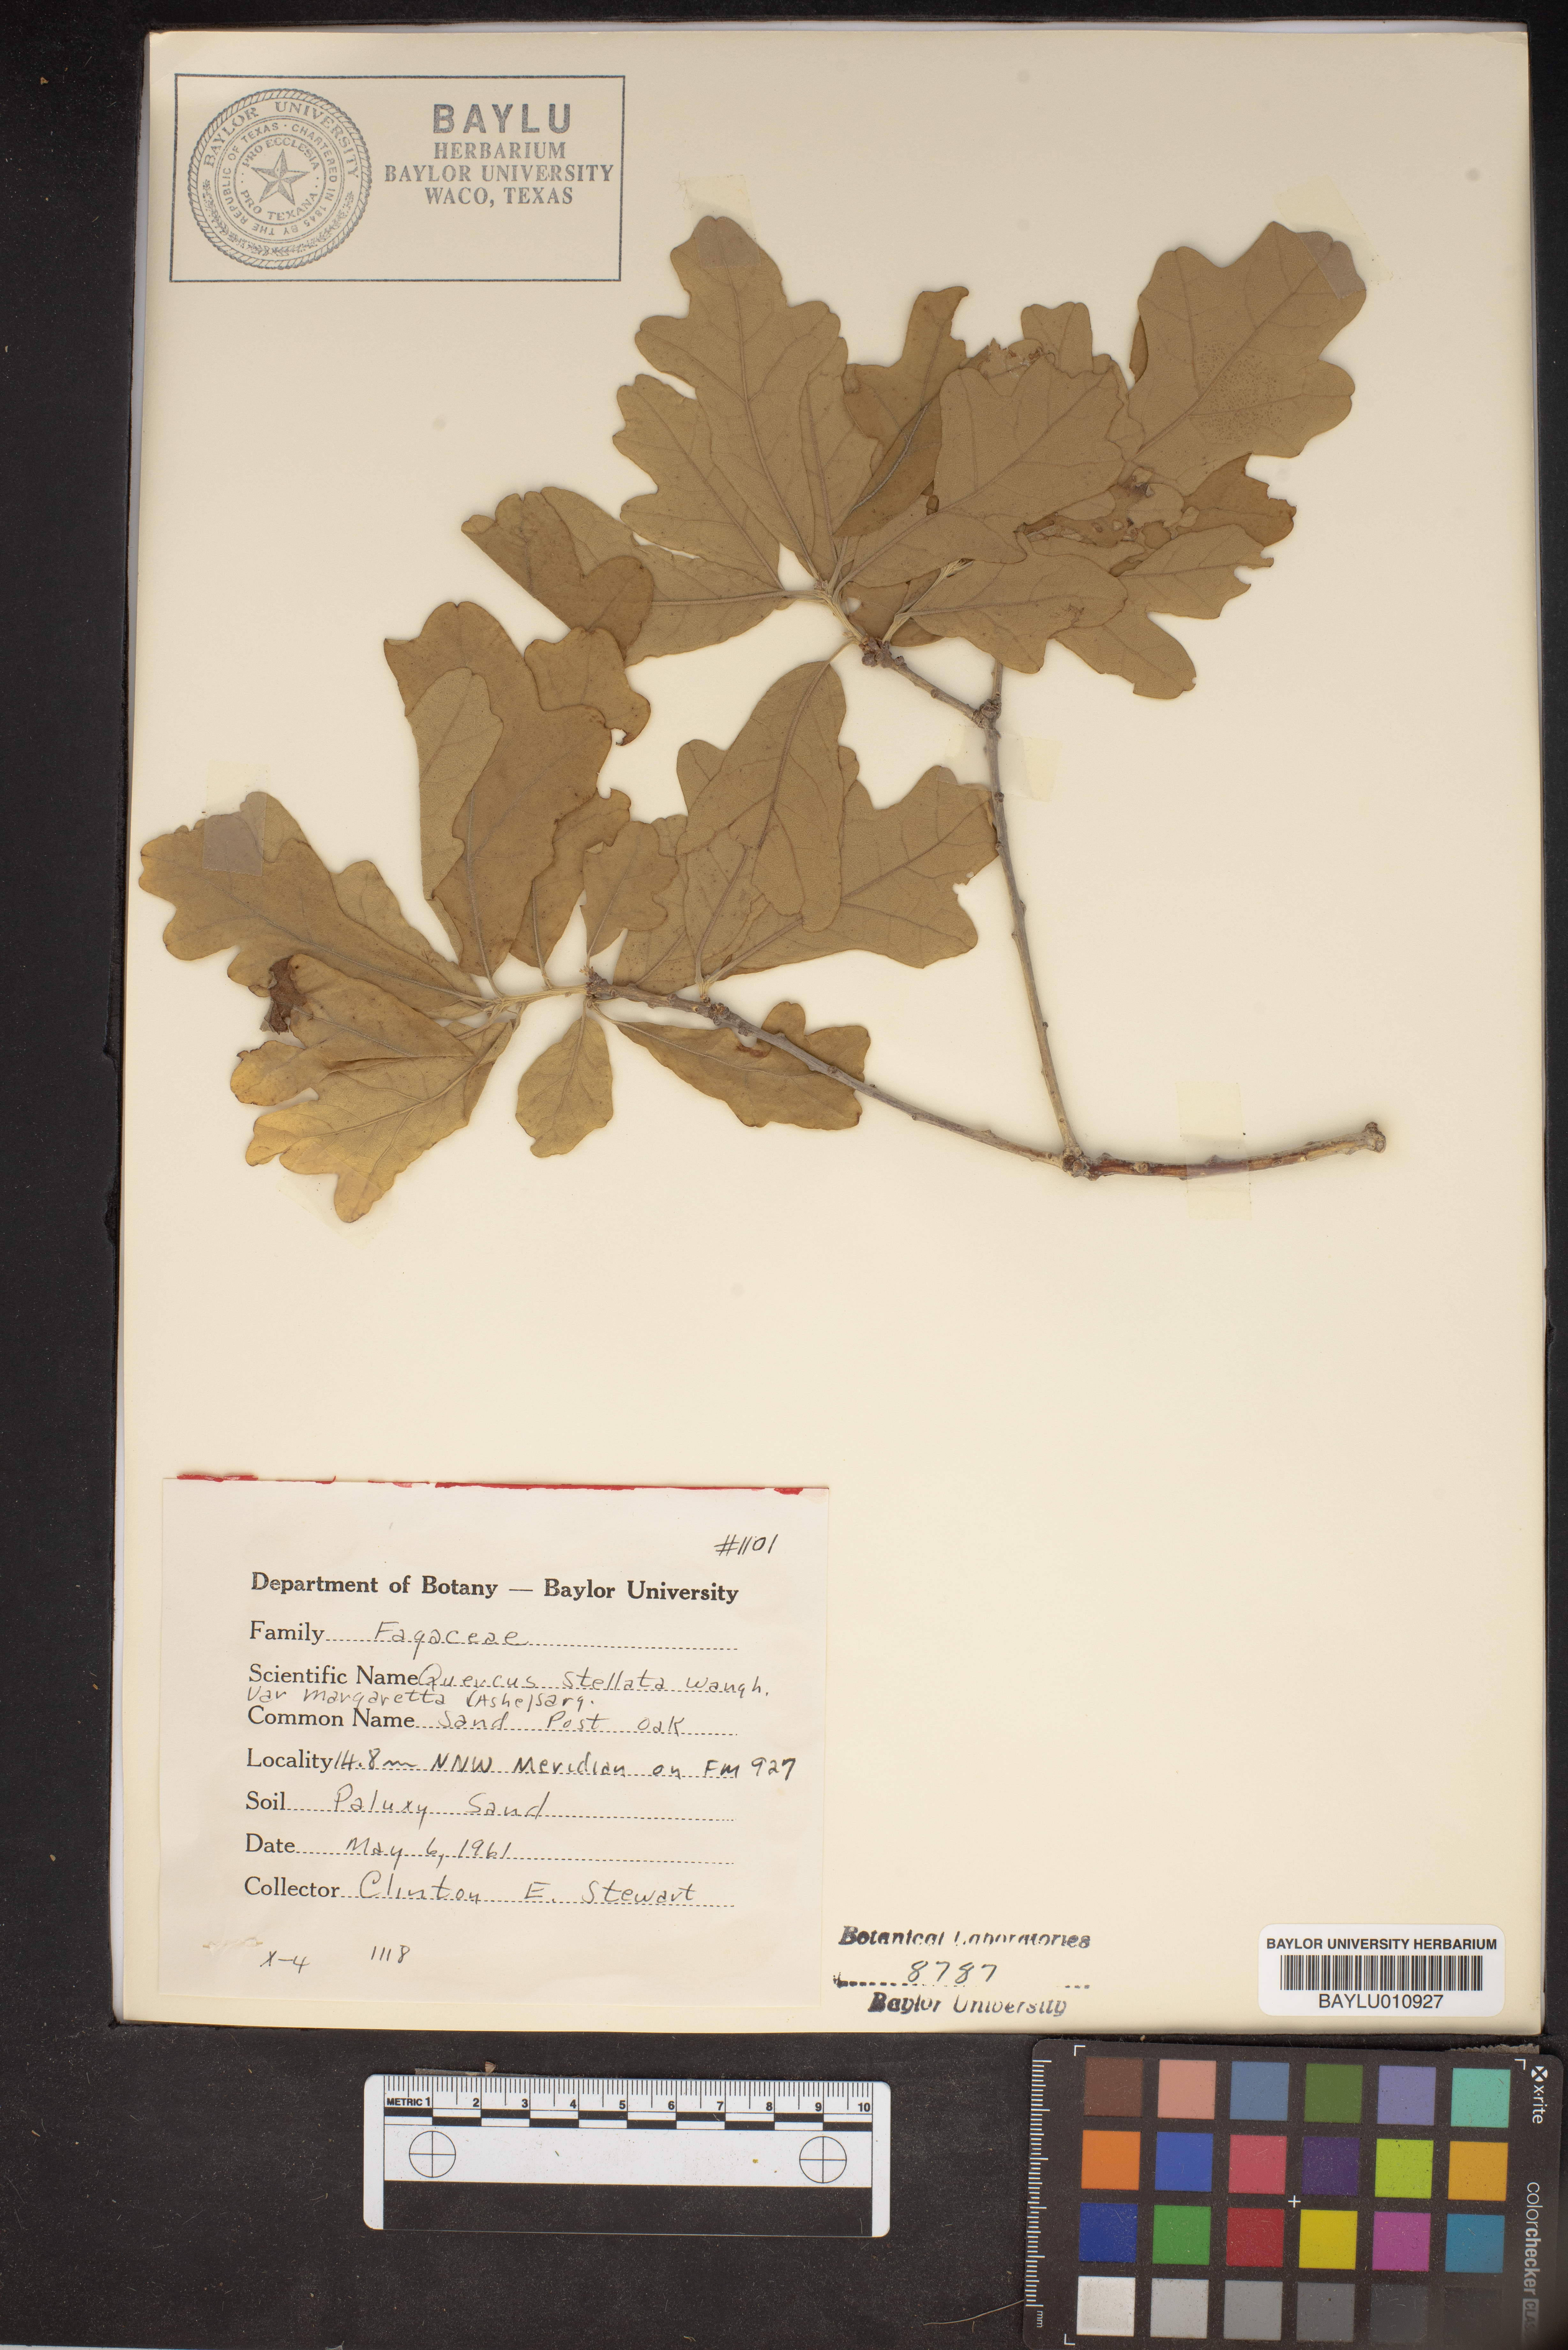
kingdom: Plantae
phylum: Tracheophyta
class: Magnoliopsida
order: Fagales
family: Fagaceae
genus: Quercus
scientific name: Quercus stellata
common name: Post oak
